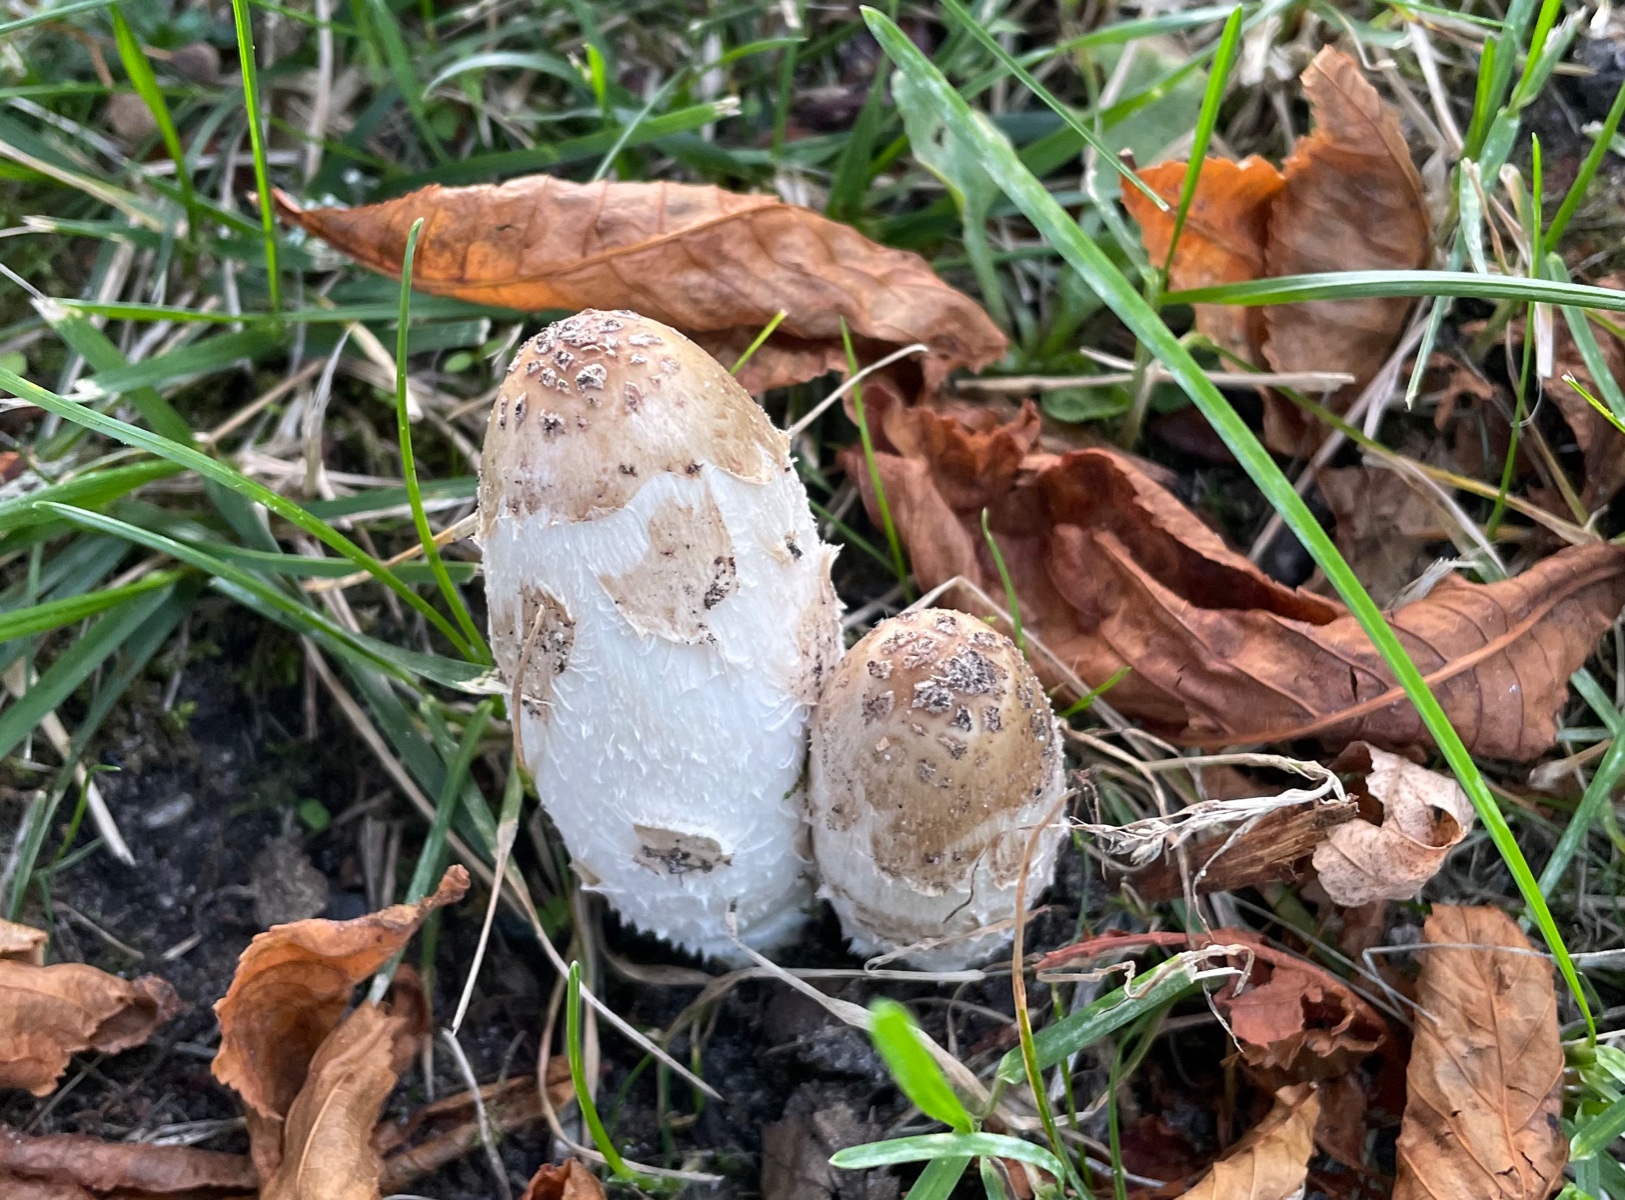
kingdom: Fungi
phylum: Basidiomycota
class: Agaricomycetes
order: Agaricales
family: Agaricaceae
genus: Coprinus
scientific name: Coprinus comatus
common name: stor parykhat
